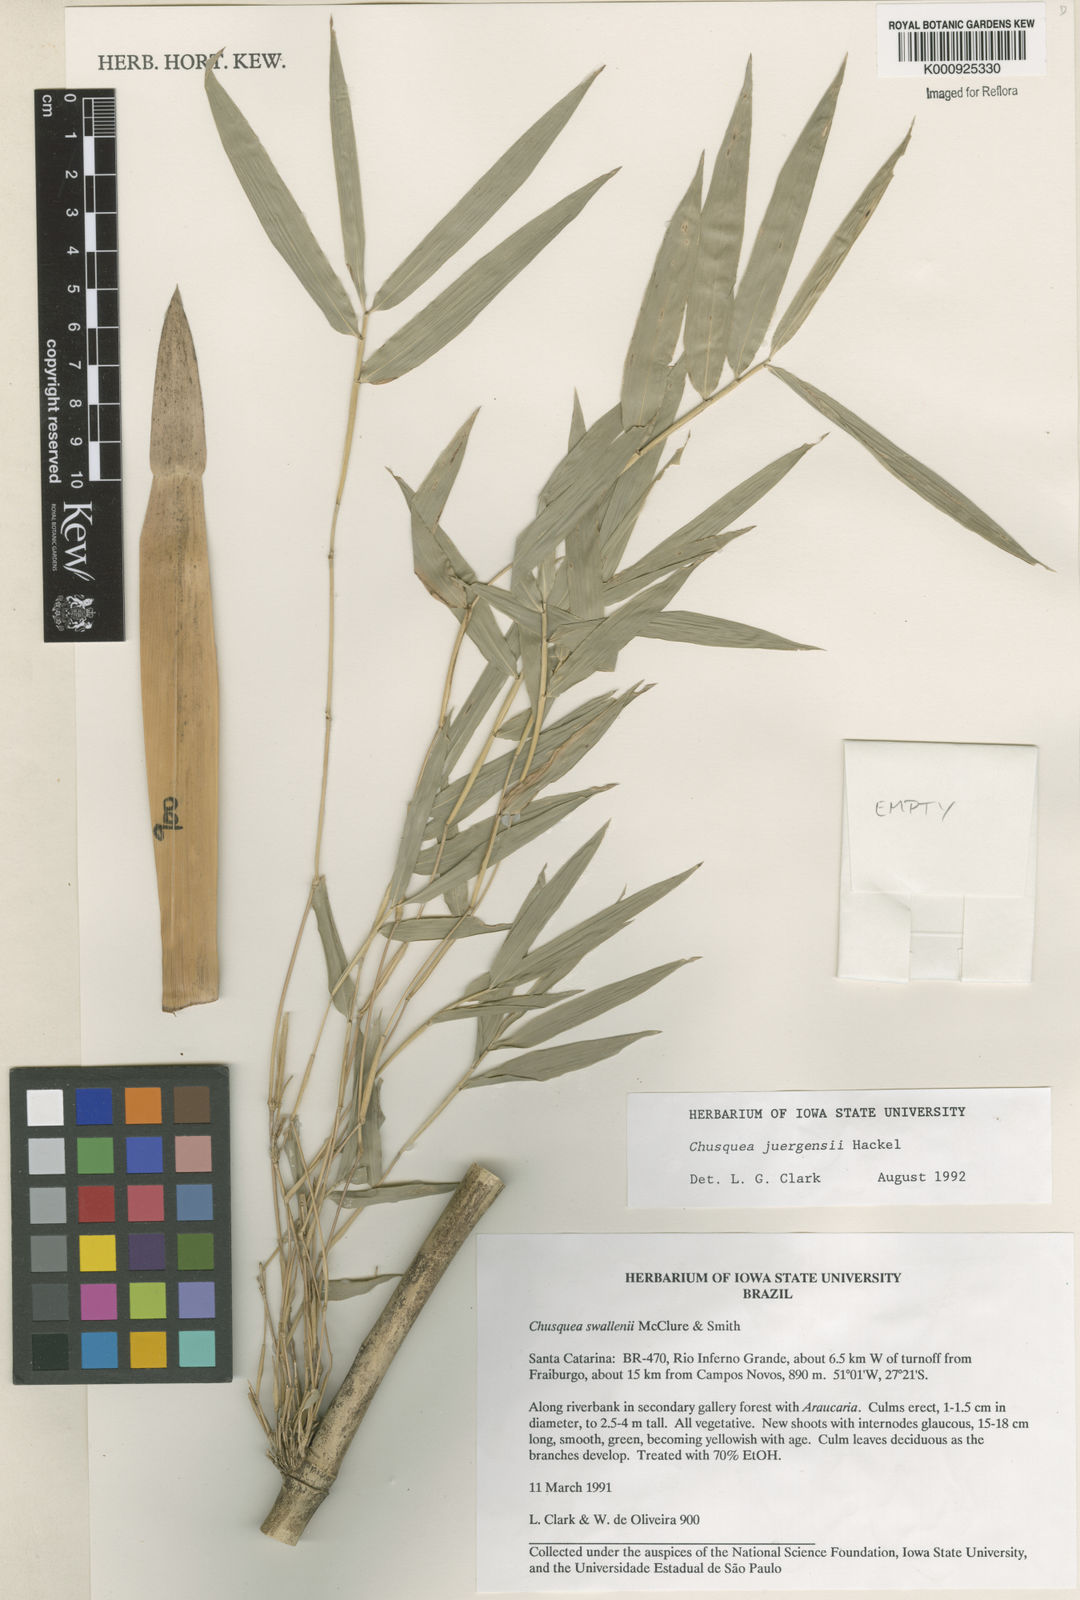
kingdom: Plantae
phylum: Tracheophyta
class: Liliopsida
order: Poales
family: Poaceae
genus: Chusquea
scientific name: Chusquea juergensii
